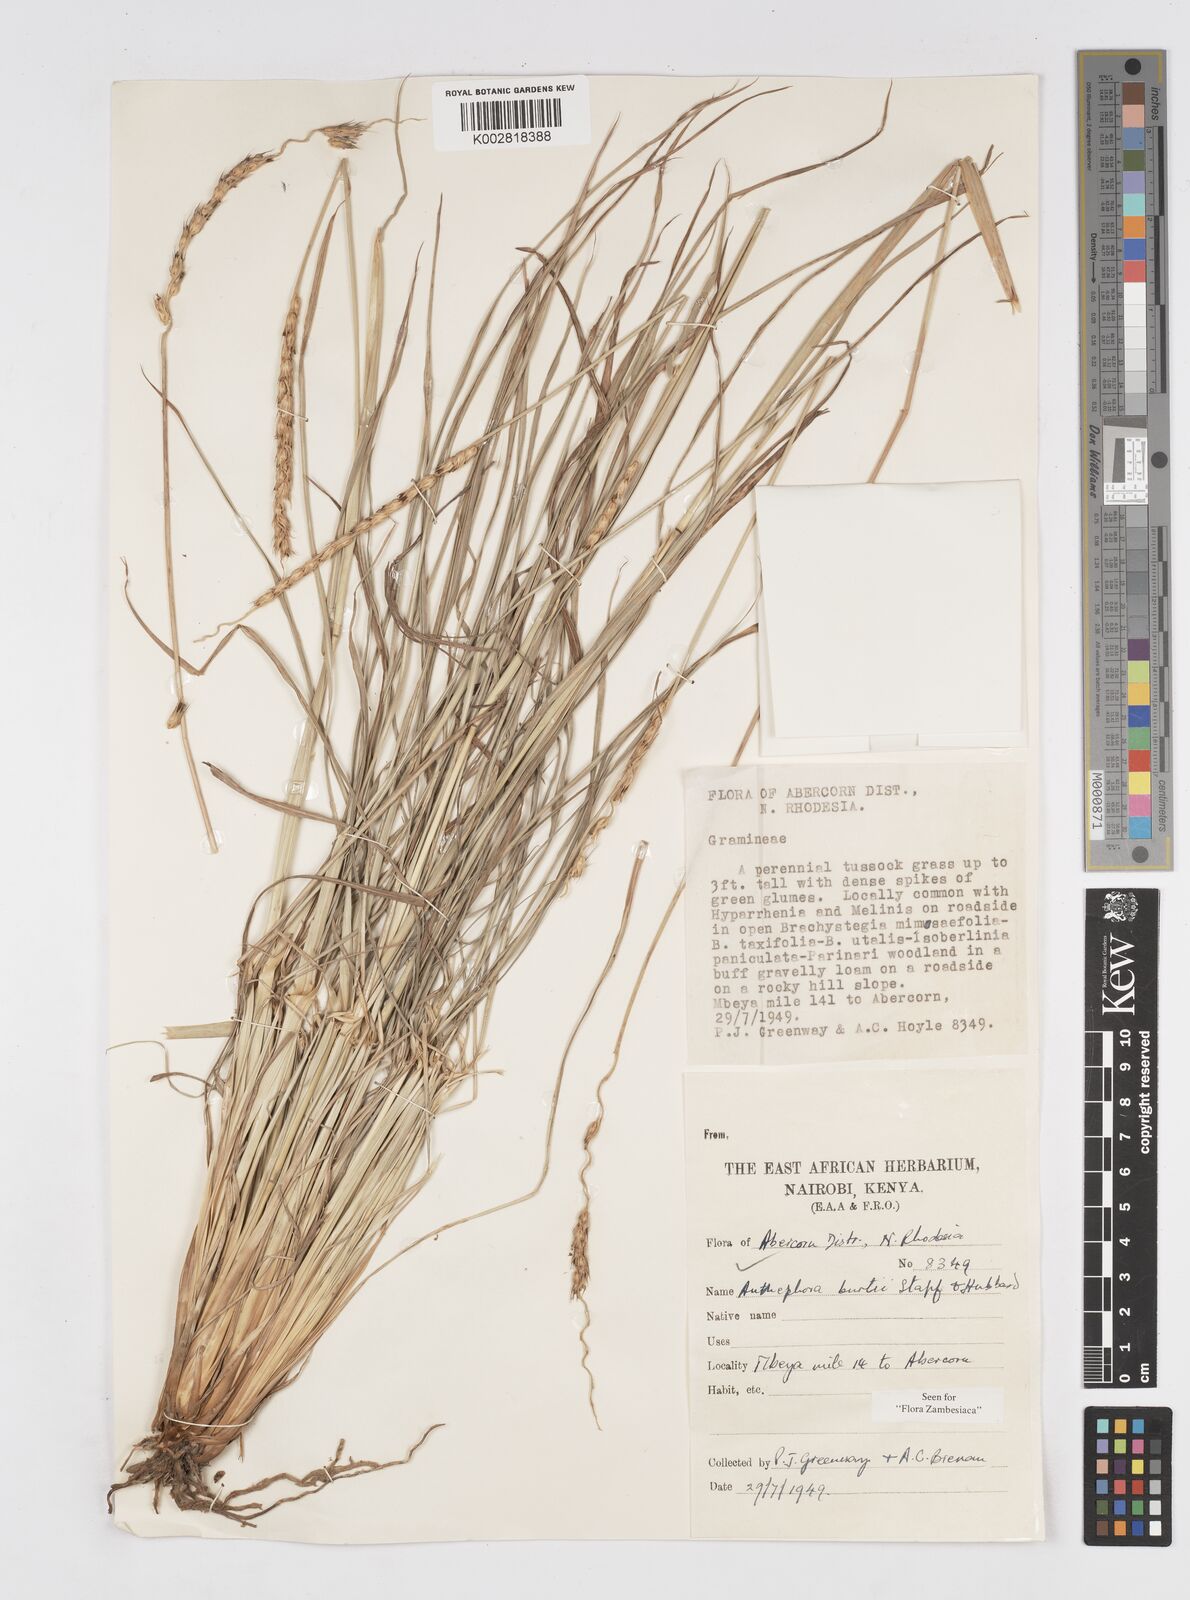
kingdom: Plantae
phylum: Tracheophyta
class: Liliopsida
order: Poales
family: Poaceae
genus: Anthephora
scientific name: Anthephora elongata
